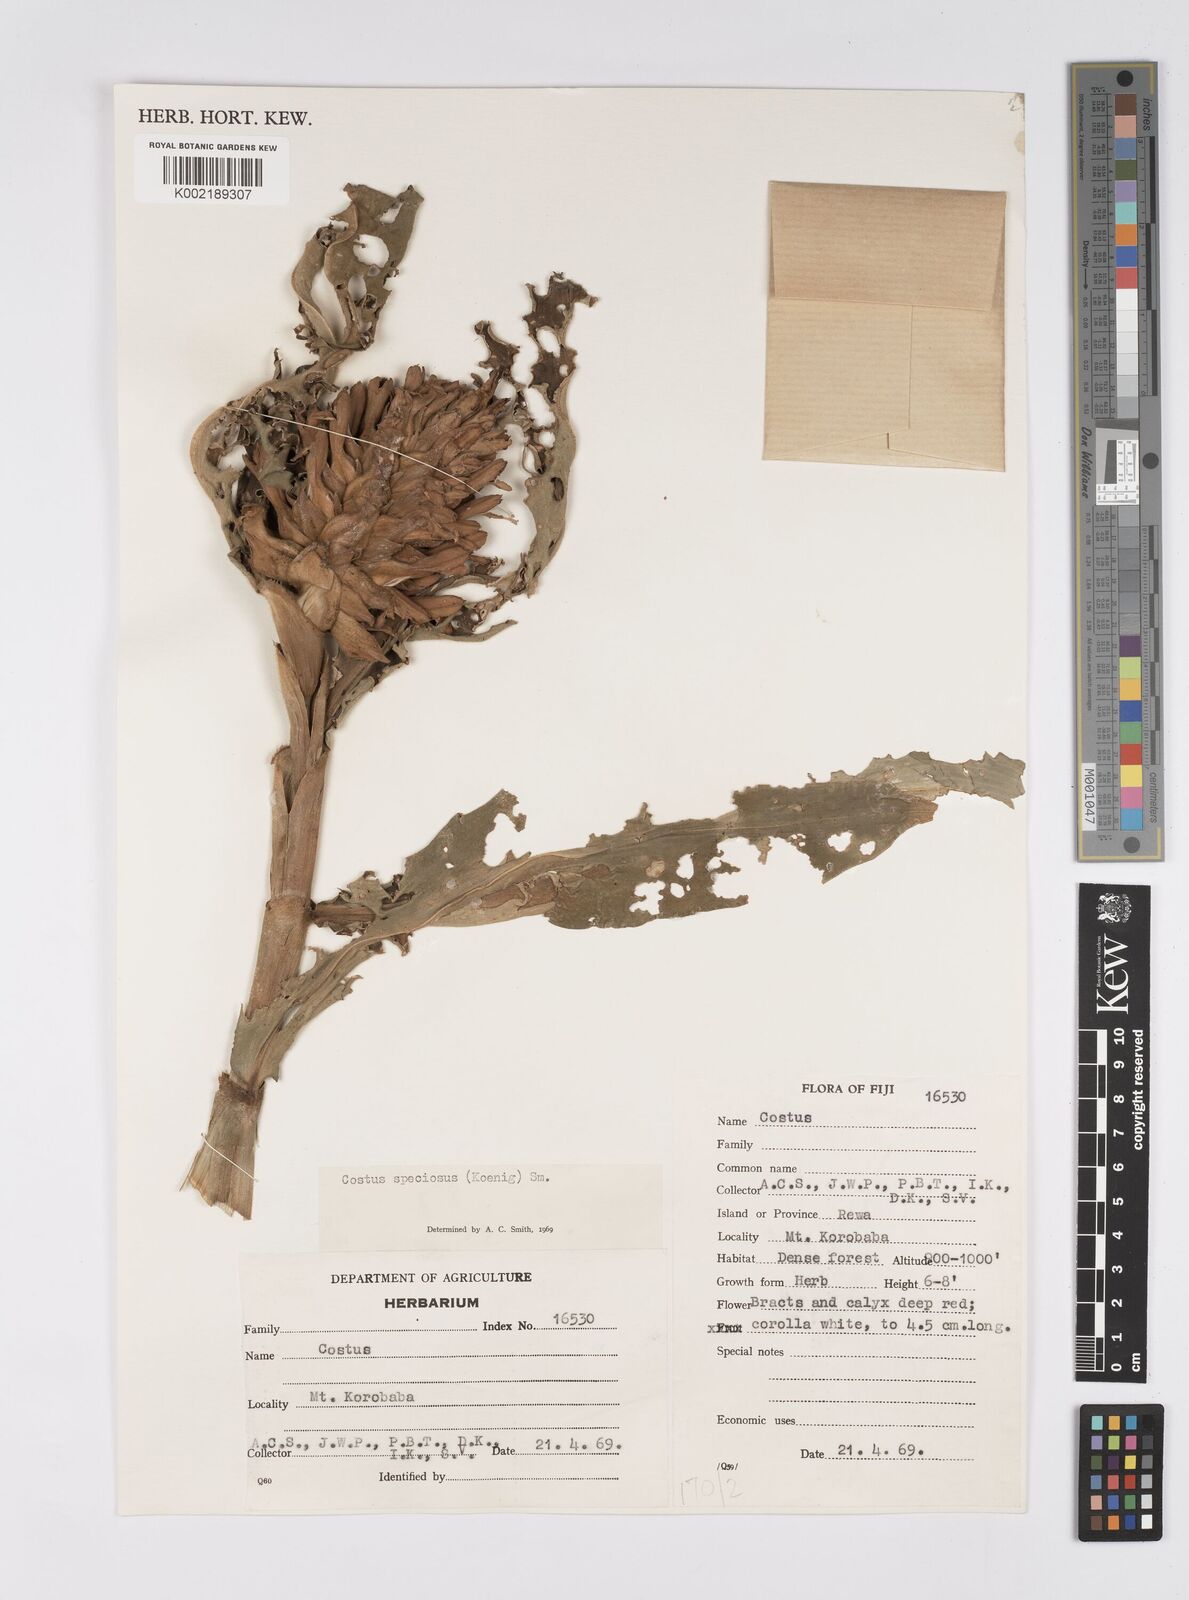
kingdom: Plantae
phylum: Tracheophyta
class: Liliopsida
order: Zingiberales
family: Costaceae
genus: Hellenia
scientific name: Hellenia speciosa
